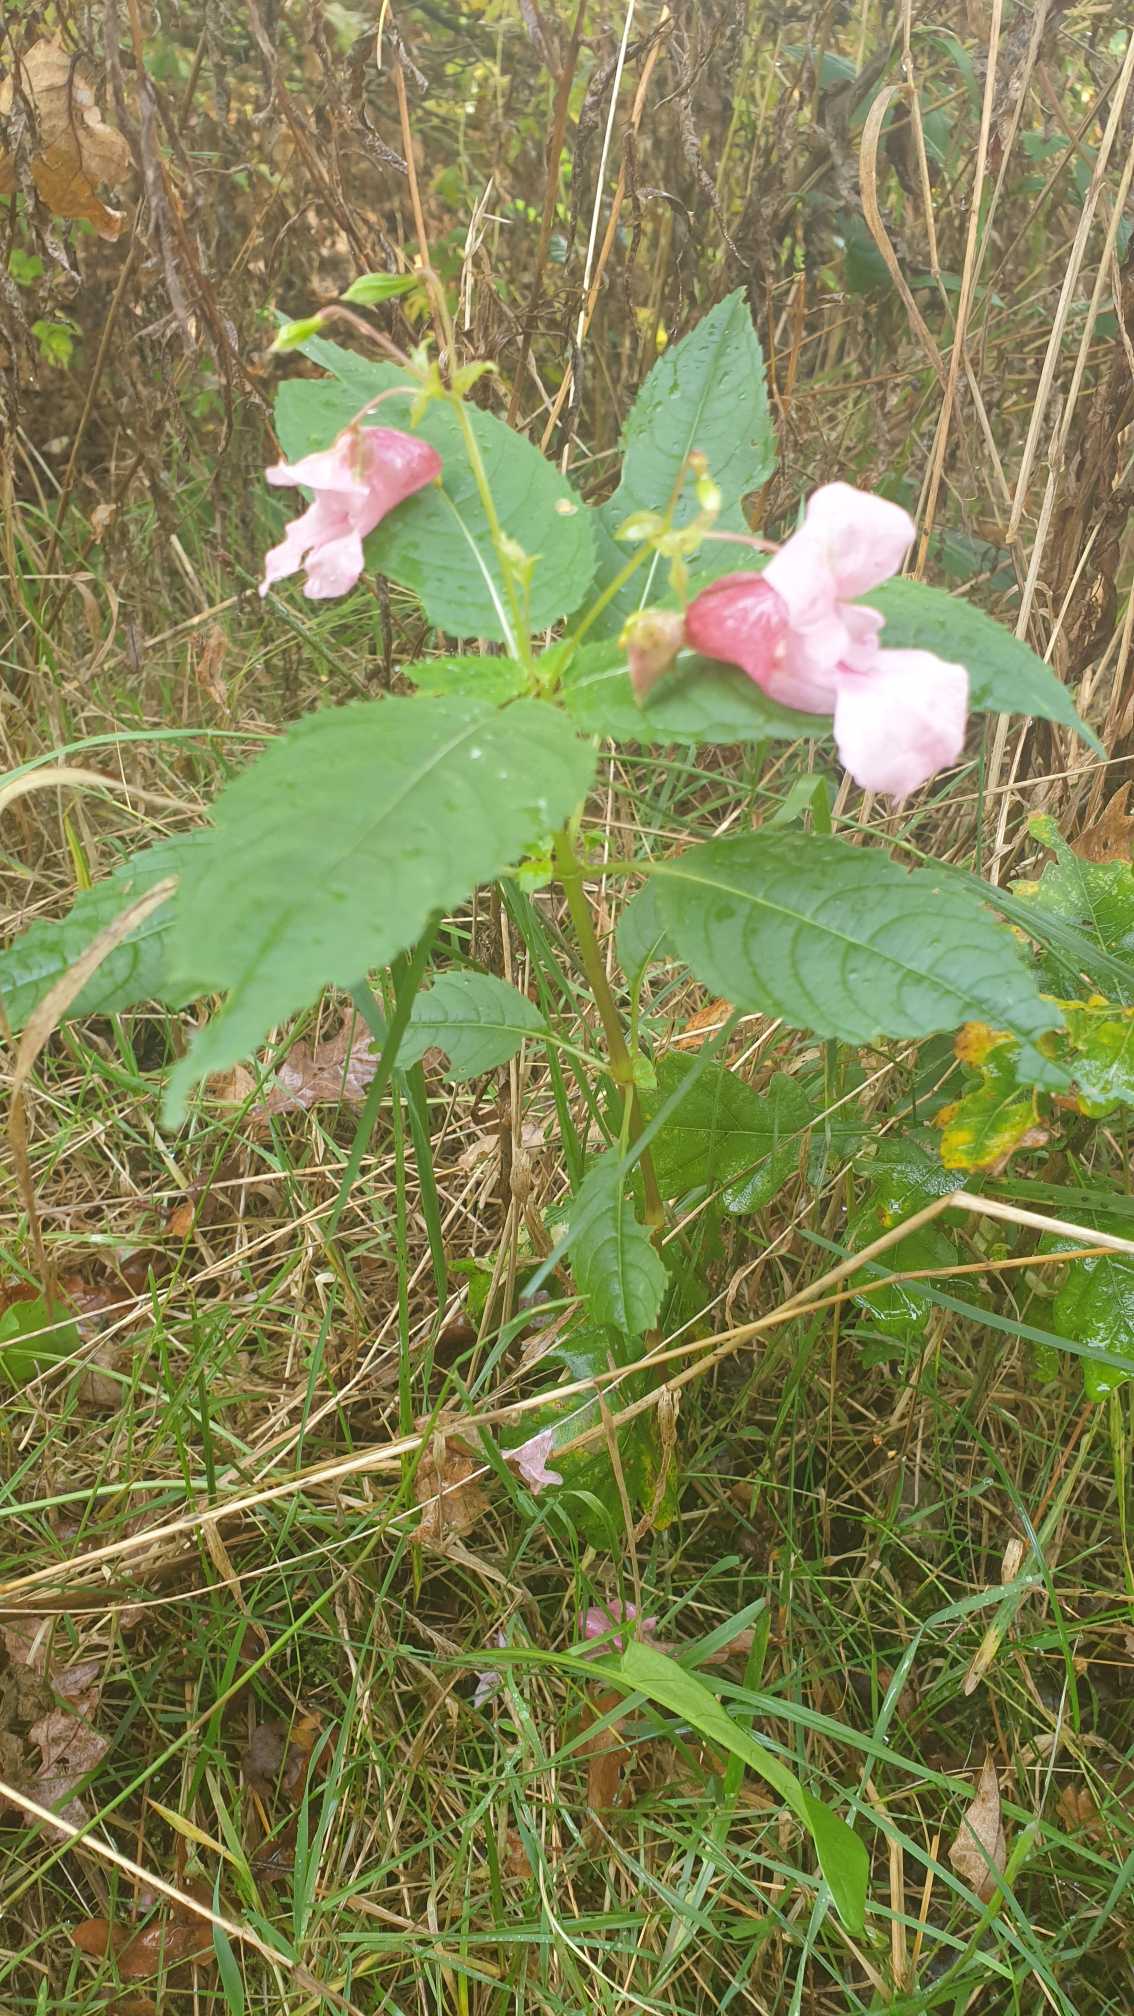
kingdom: Plantae
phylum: Tracheophyta
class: Magnoliopsida
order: Ericales
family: Balsaminaceae
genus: Impatiens
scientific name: Impatiens glandulifera
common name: Kæmpe-balsamin
